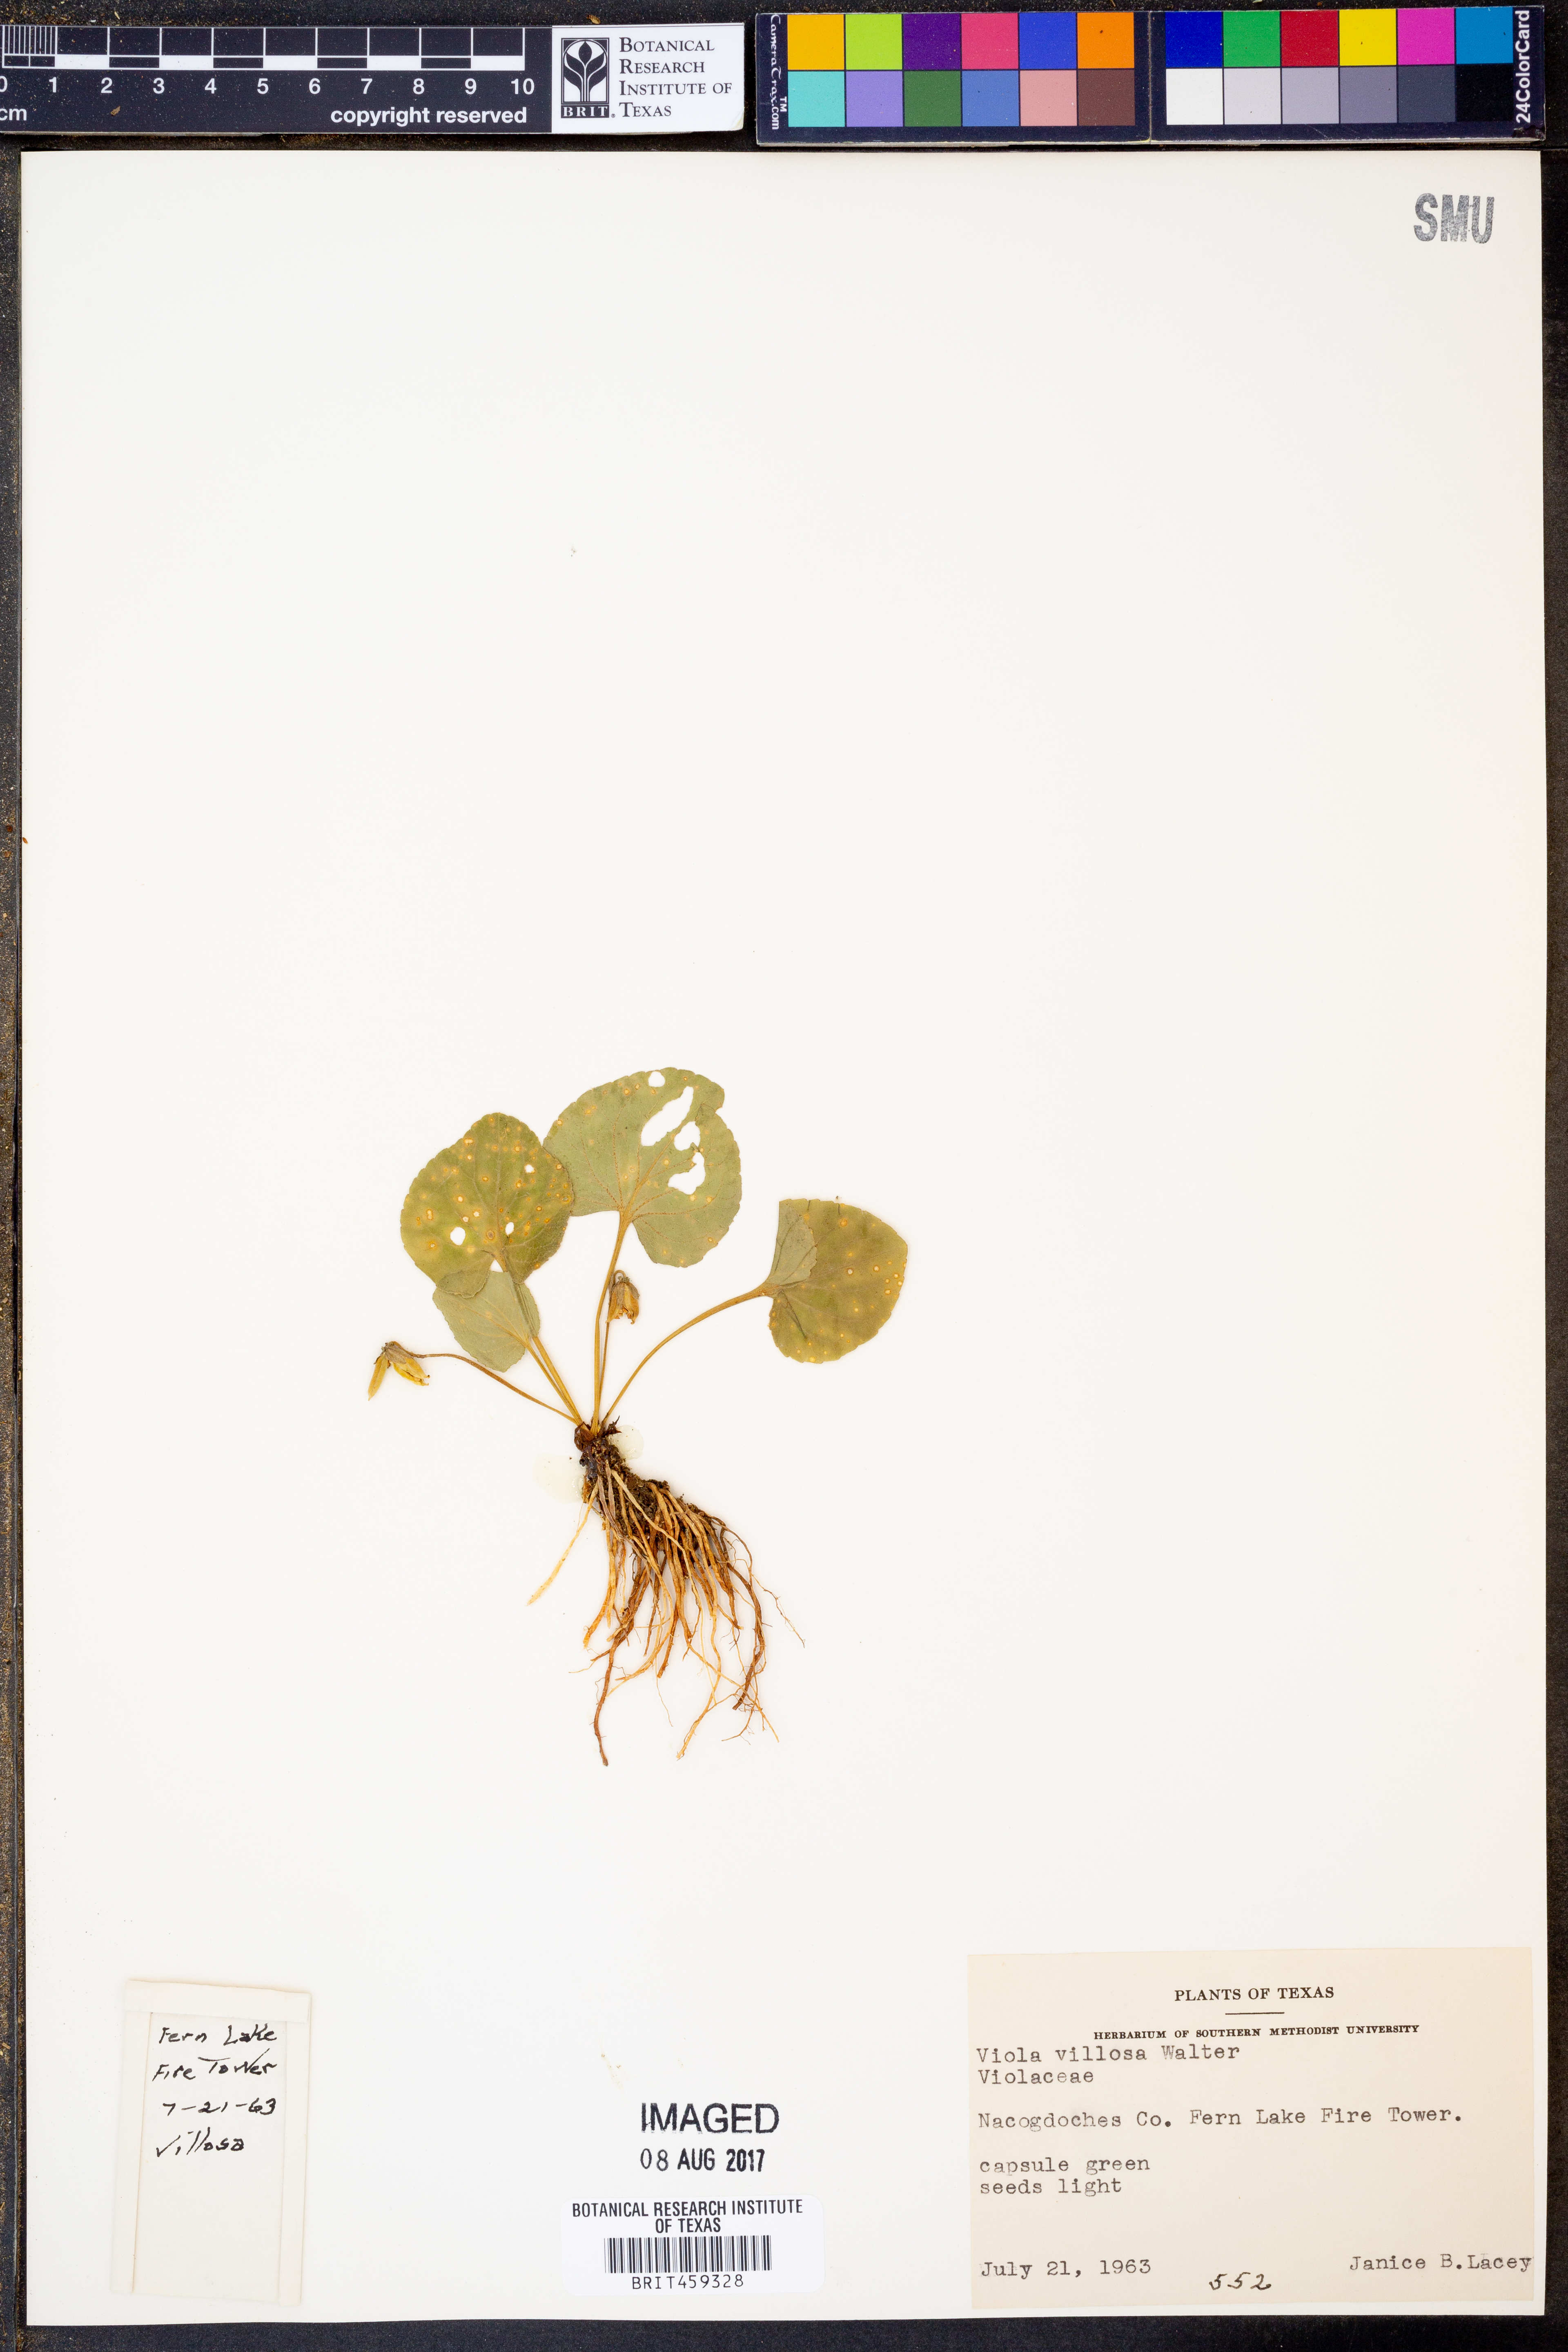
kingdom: Plantae
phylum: Tracheophyta
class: Magnoliopsida
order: Malpighiales
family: Violaceae
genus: Viola
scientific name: Viola villosa
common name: Carolina violet
